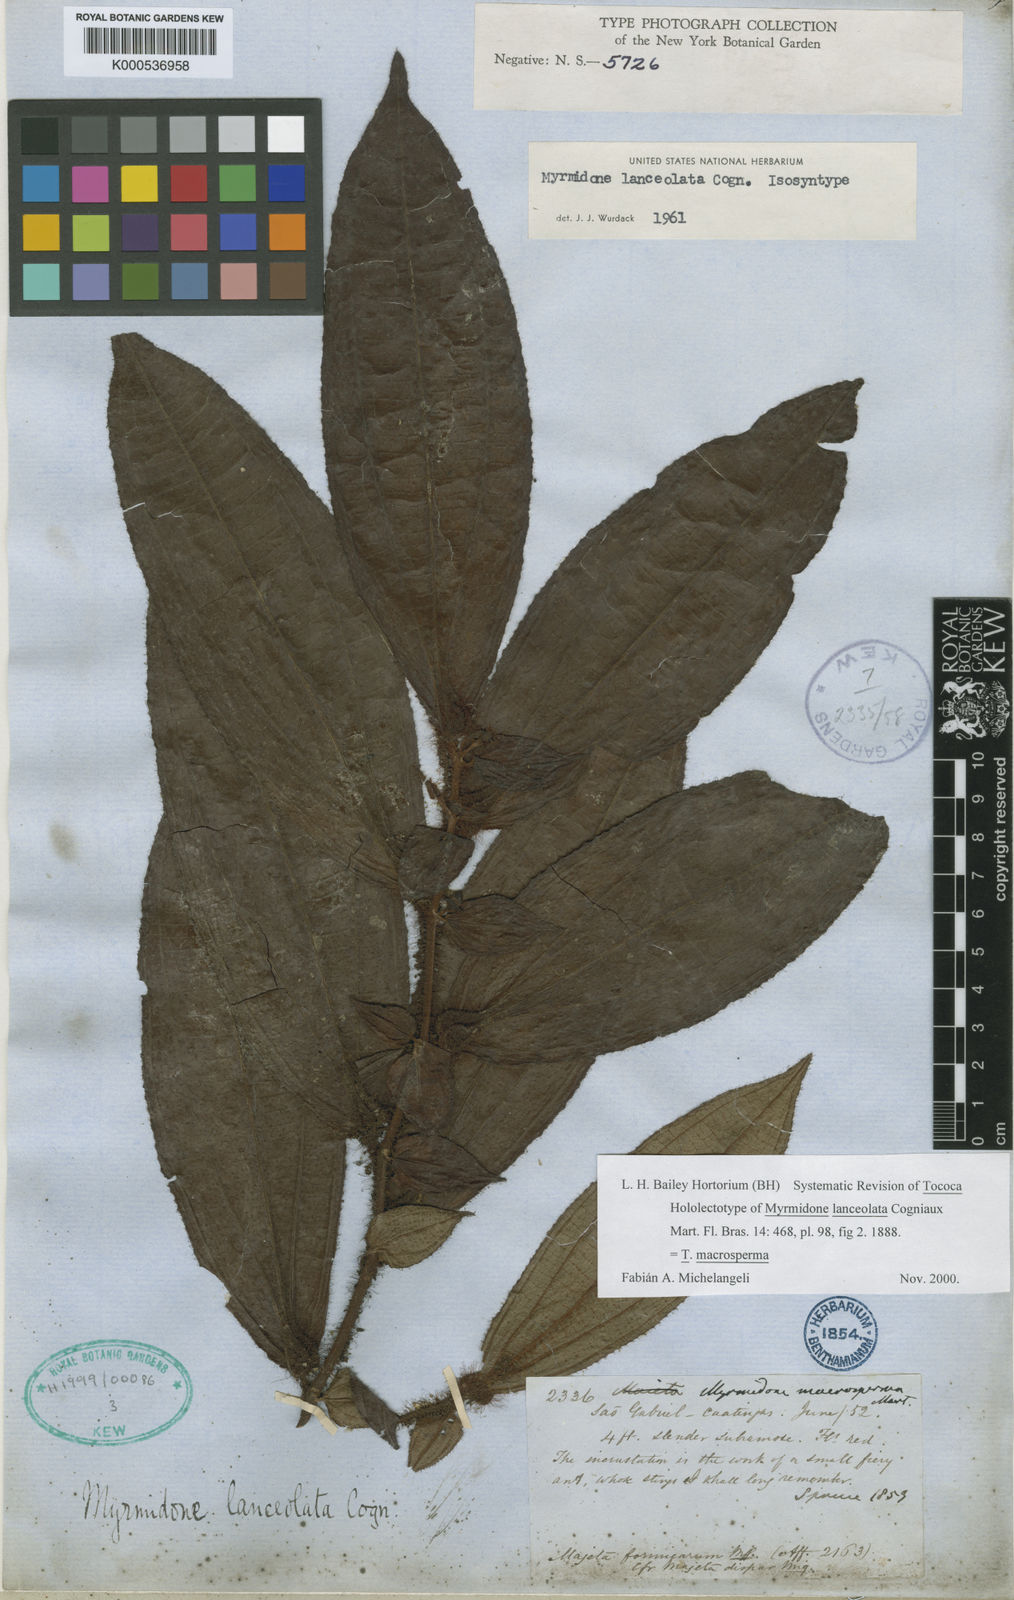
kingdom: Plantae
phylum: Tracheophyta
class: Magnoliopsida
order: Myrtales
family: Melastomataceae
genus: Miconia
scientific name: Miconia macrosperma
